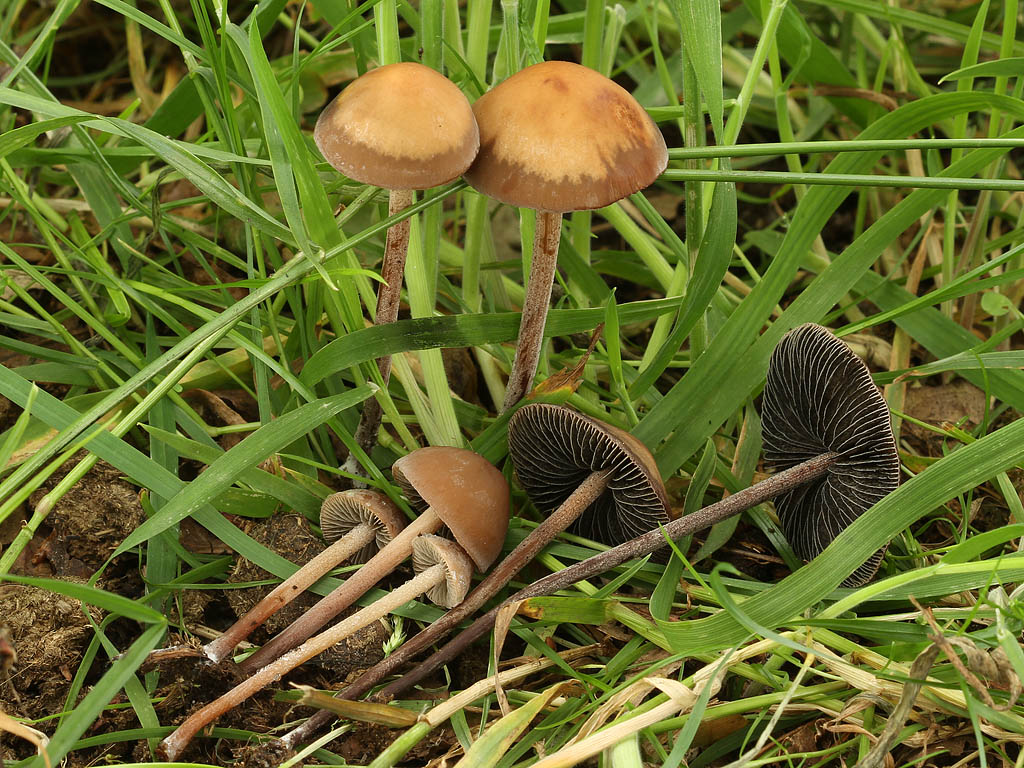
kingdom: Fungi
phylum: Basidiomycota
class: Agaricomycetes
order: Agaricales
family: Bolbitiaceae
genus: Panaeolus
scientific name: Panaeolus acuminatus
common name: høj glanshat
